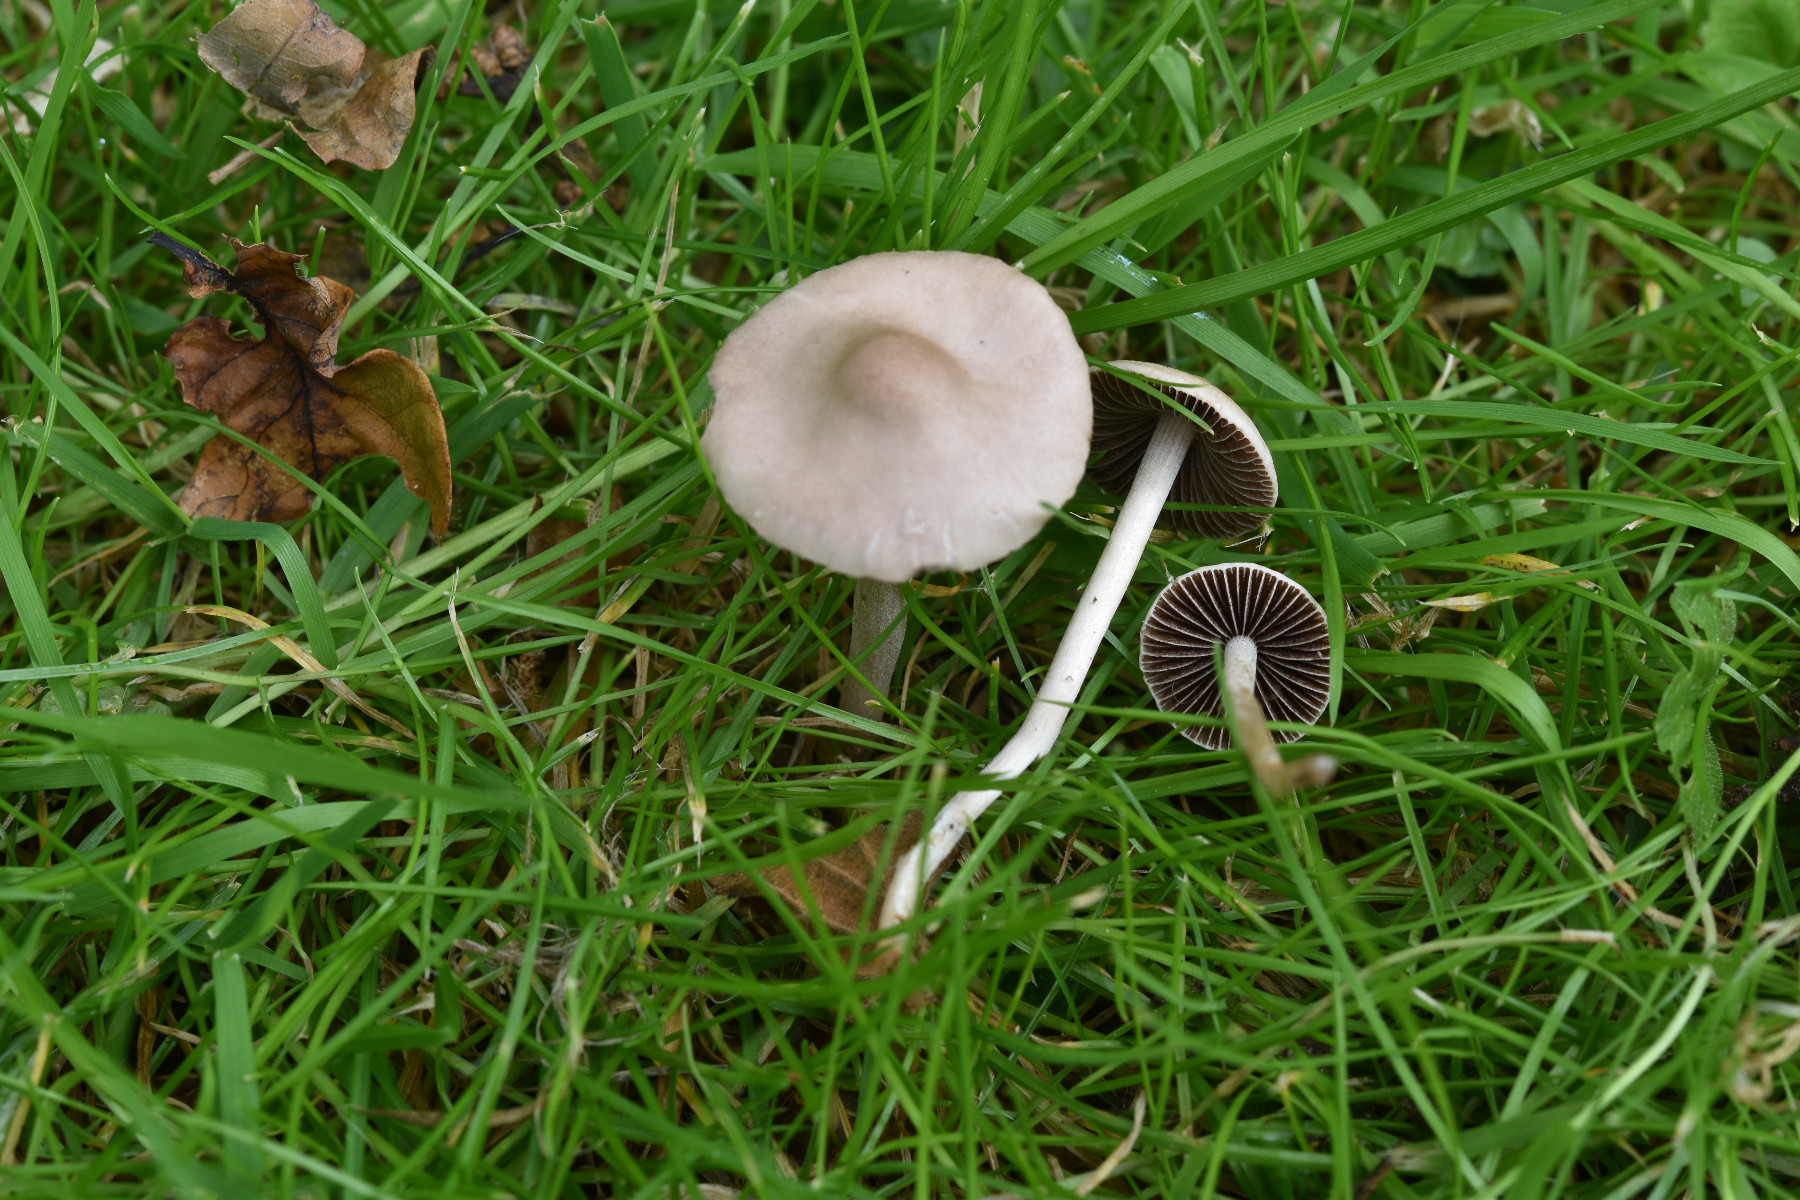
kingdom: Fungi
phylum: Basidiomycota
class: Agaricomycetes
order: Agaricales
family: Bolbitiaceae
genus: Panaeolina
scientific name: Panaeolina foenisecii
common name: høslætsvamp
